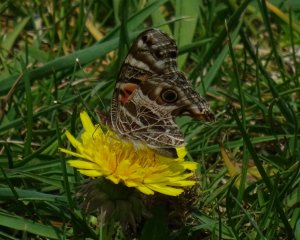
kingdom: Animalia
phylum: Arthropoda
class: Insecta
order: Lepidoptera
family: Nymphalidae
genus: Vanessa
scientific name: Vanessa virginiensis
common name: American Lady
